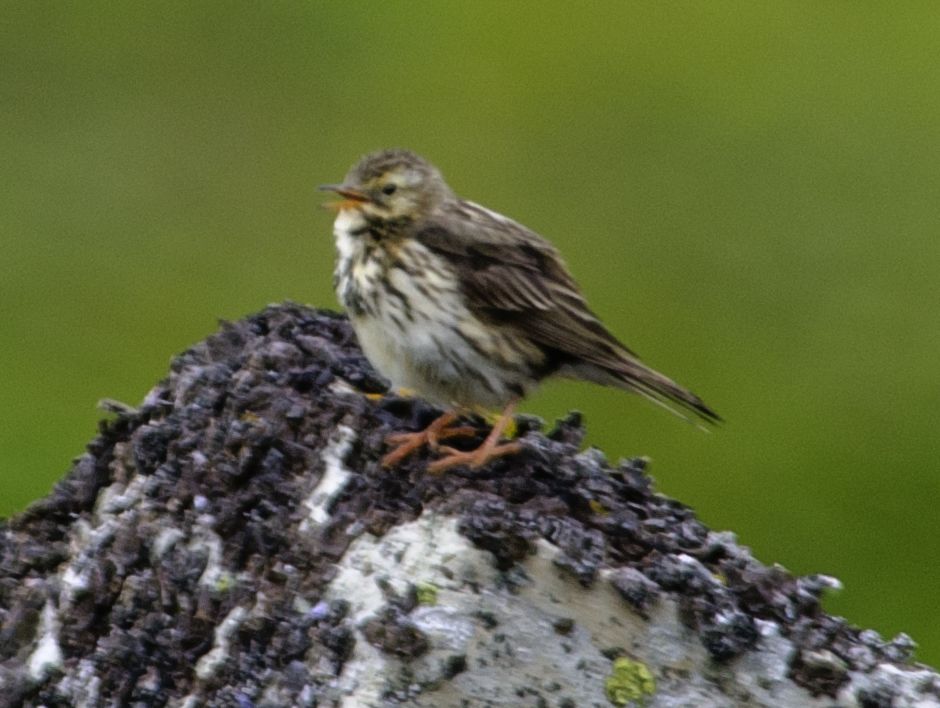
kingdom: Animalia
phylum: Chordata
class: Aves
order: Passeriformes
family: Motacillidae
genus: Anthus
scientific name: Anthus pratensis
